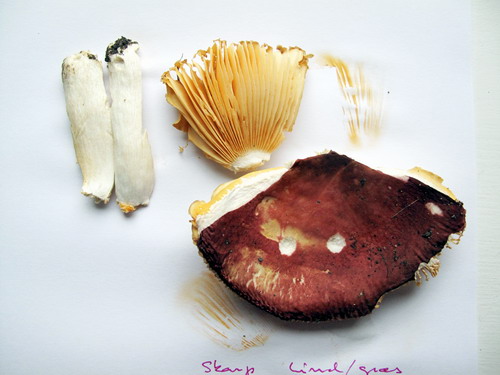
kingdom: Fungi
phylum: Basidiomycota
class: Agaricomycetes
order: Russulales
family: Russulaceae
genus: Russula
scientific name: Russula cuprea
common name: kanel-skørhat
